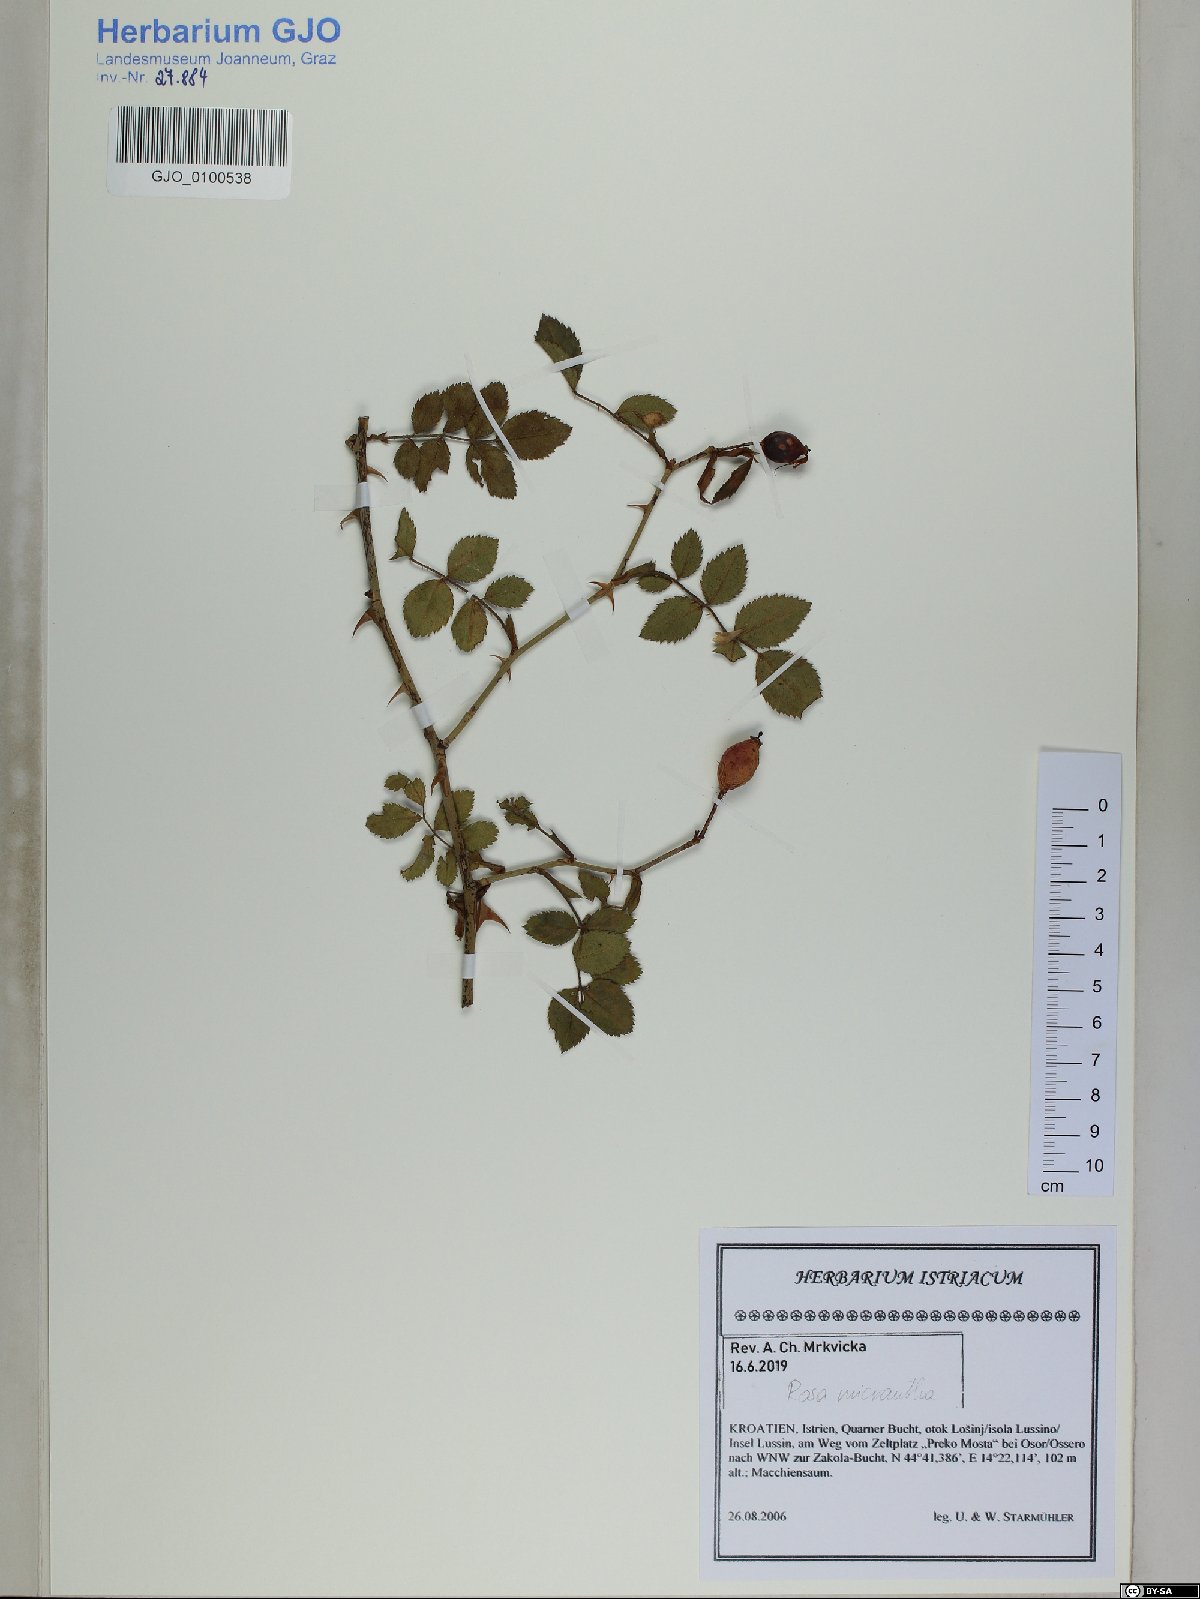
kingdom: Plantae
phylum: Tracheophyta
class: Magnoliopsida
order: Rosales
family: Rosaceae
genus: Rosa
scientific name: Rosa micrantha
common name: Small-flowered sweet-briar
